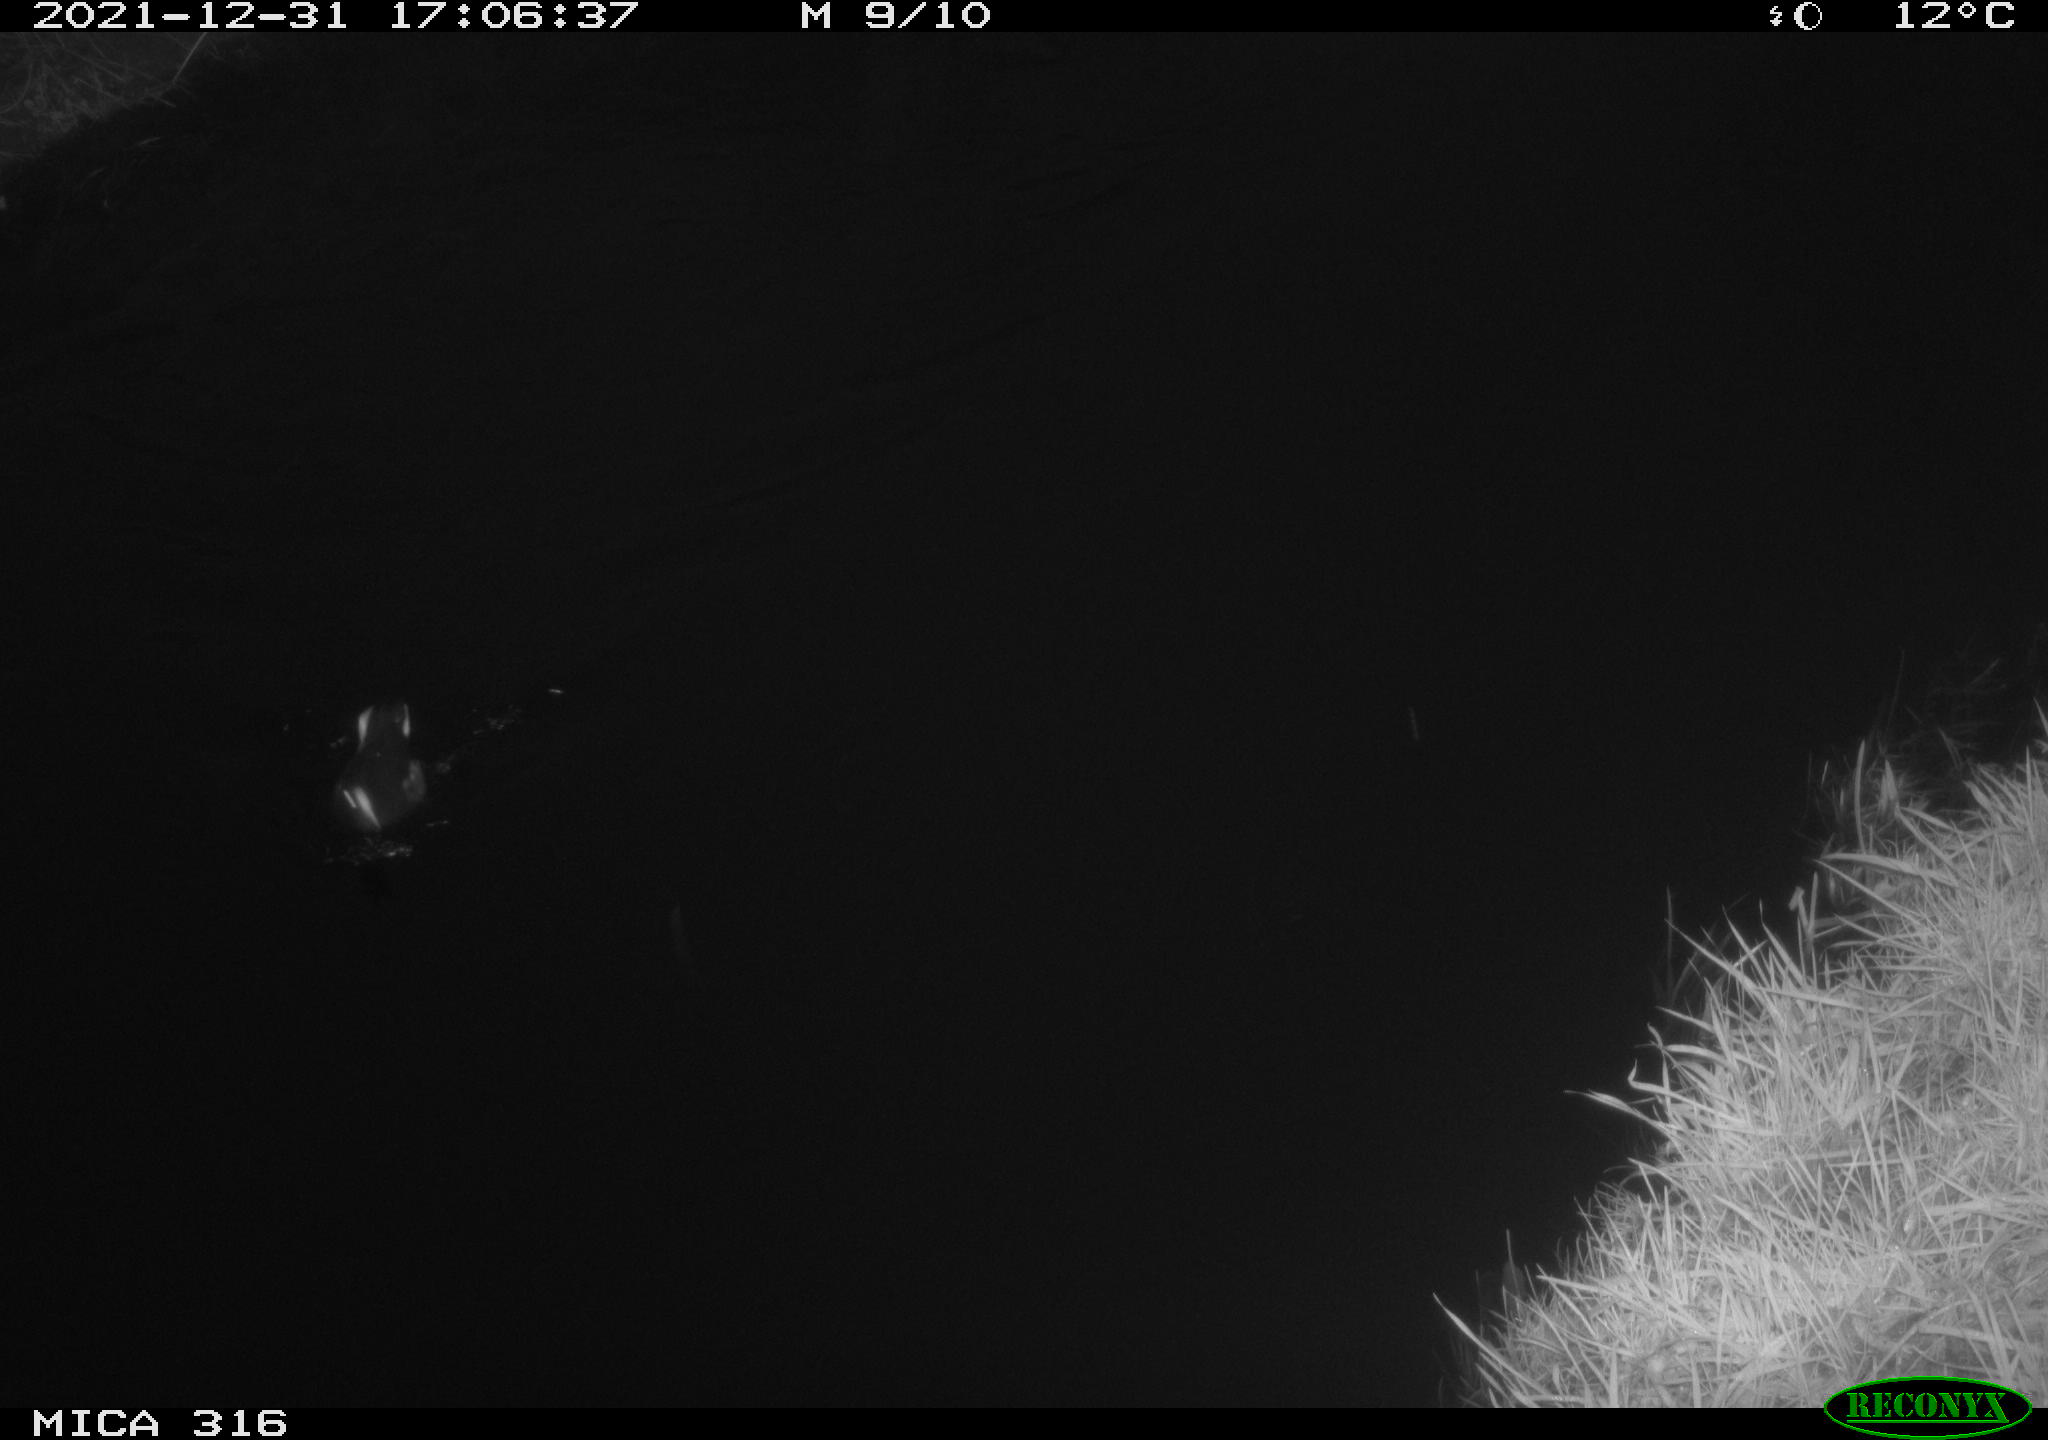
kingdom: Animalia
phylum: Chordata
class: Aves
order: Gruiformes
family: Rallidae
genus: Gallinula
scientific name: Gallinula chloropus
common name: Common moorhen
